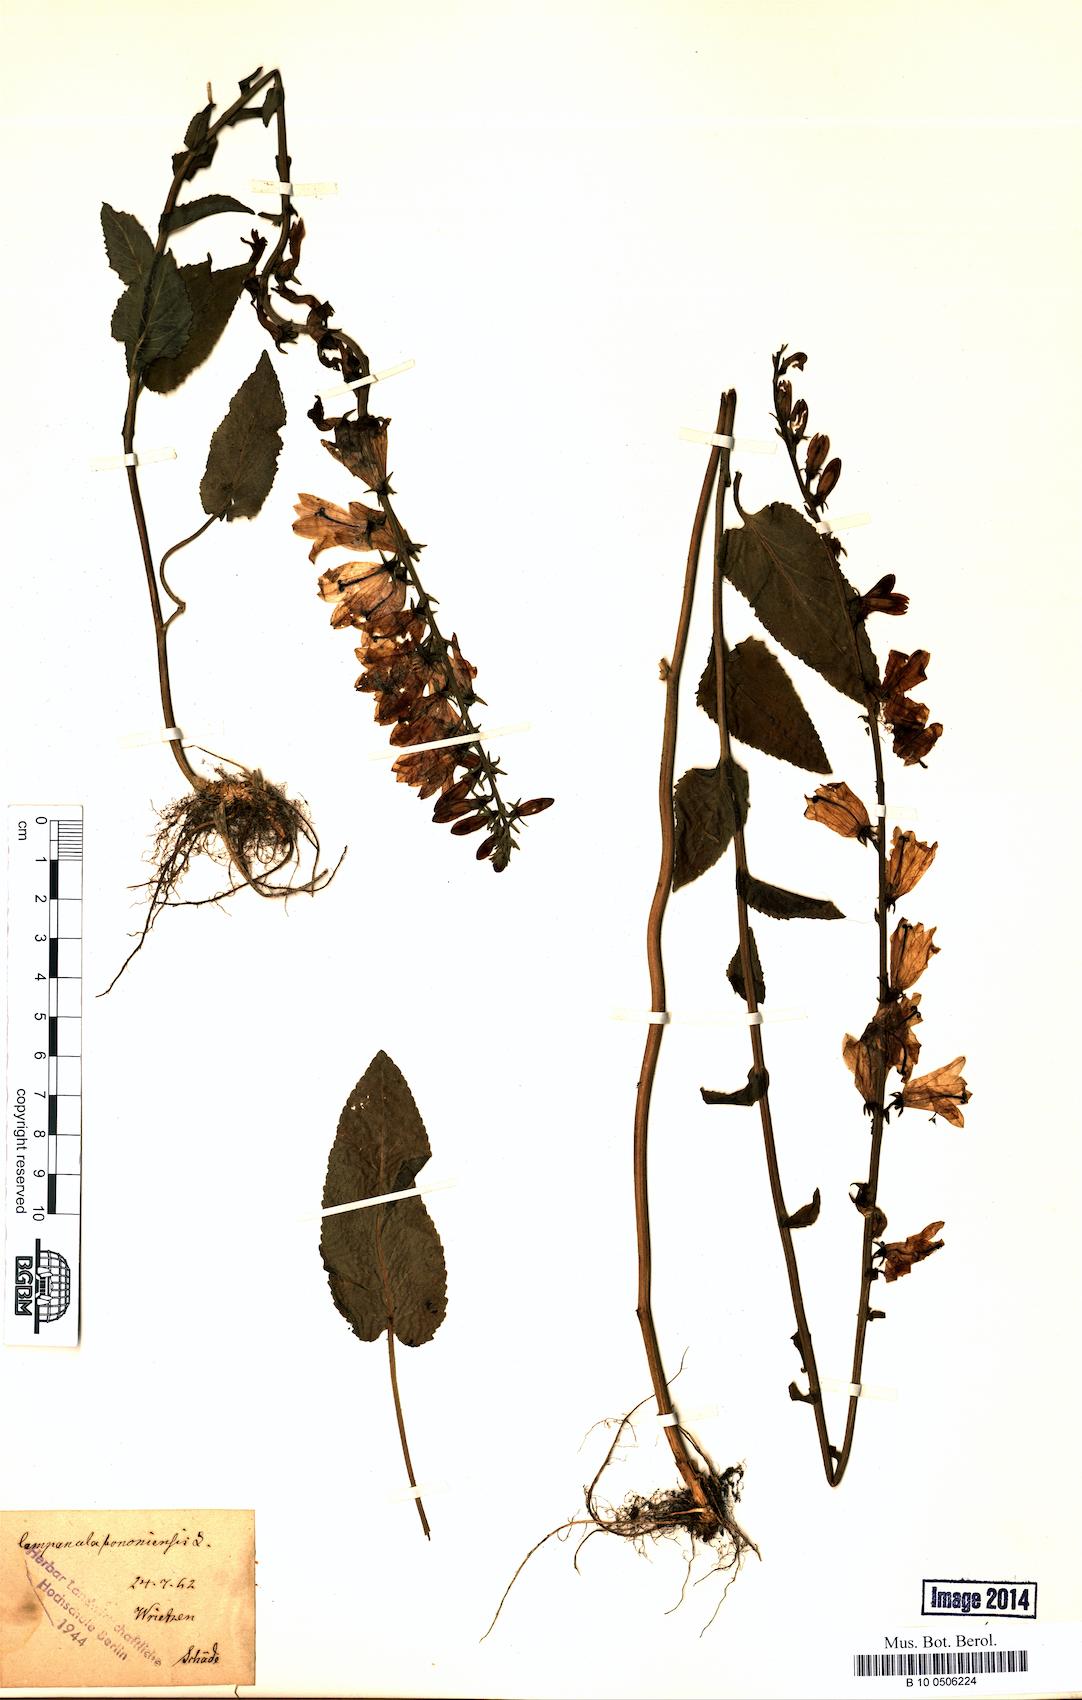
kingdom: Plantae
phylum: Tracheophyta
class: Magnoliopsida
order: Asterales
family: Campanulaceae
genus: Campanula
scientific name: Campanula bononiensis
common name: Pale bellflower
